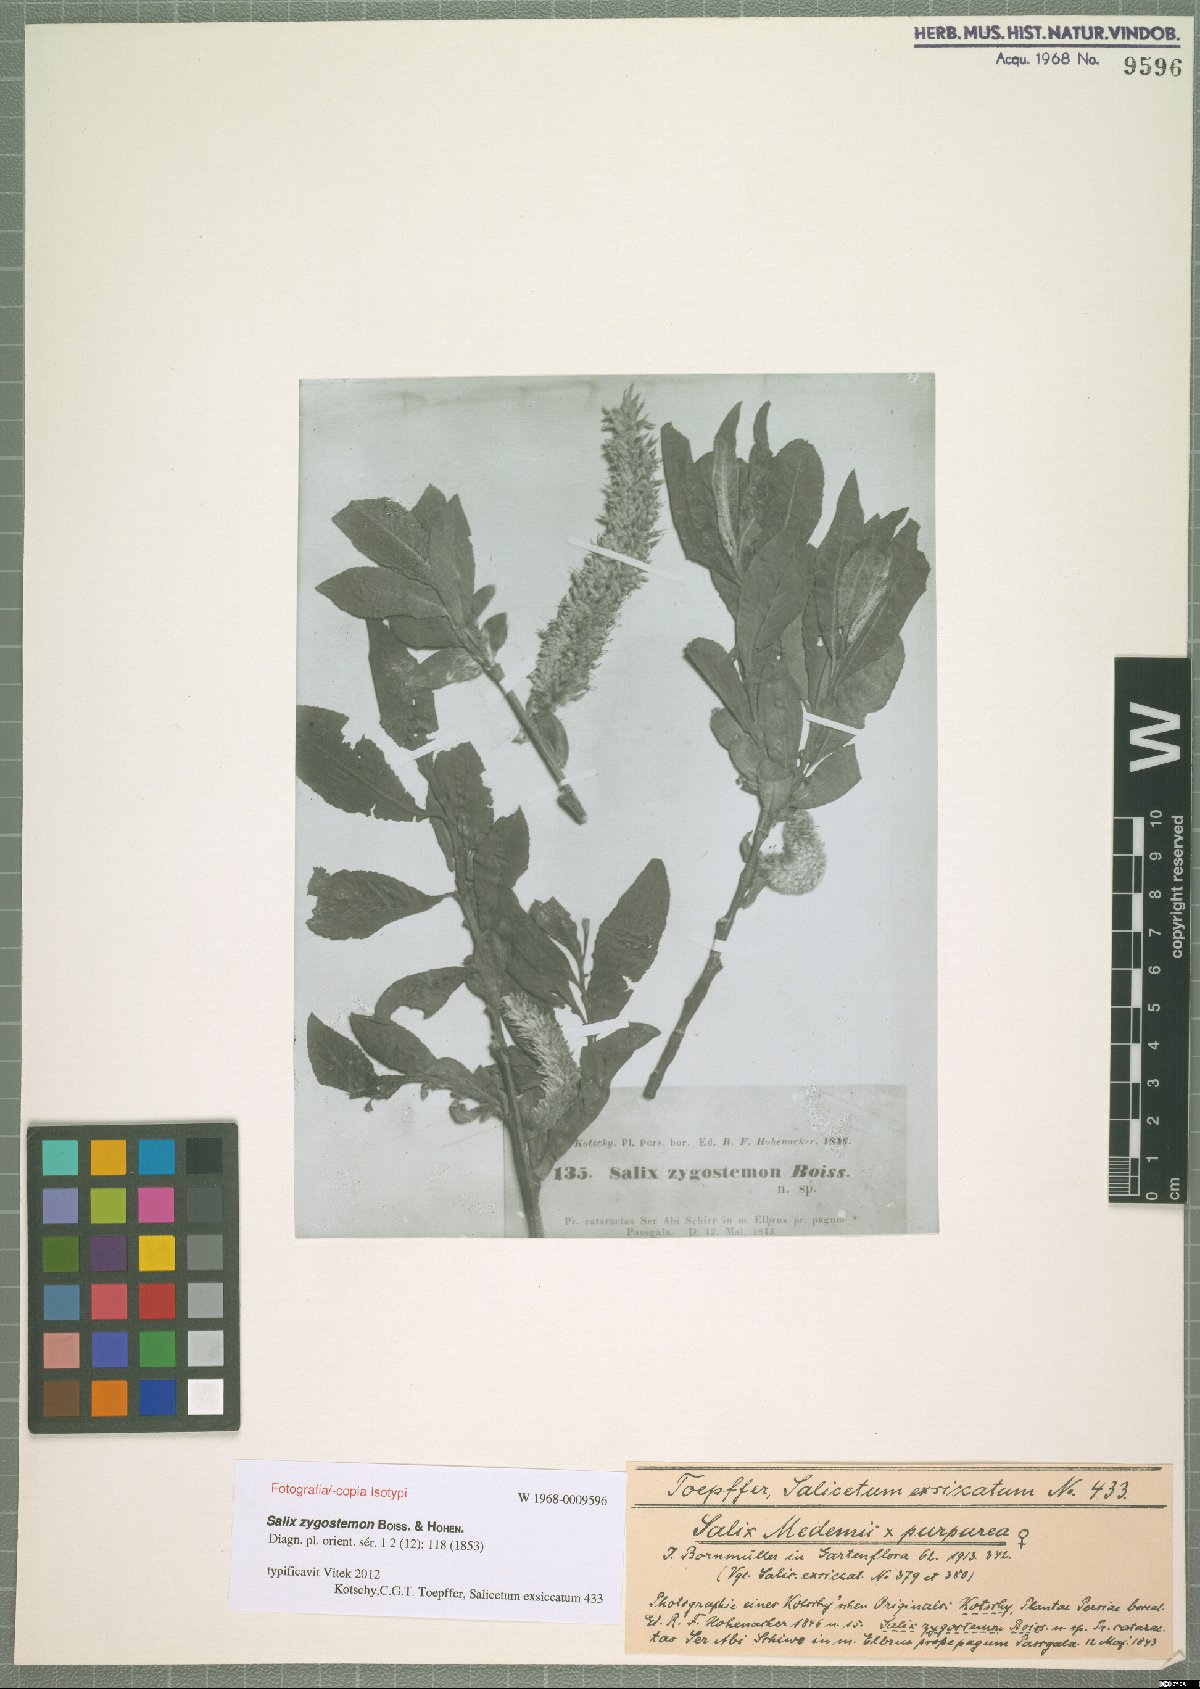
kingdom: Plantae
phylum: Tracheophyta
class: Magnoliopsida
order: Malpighiales
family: Salicaceae
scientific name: Salicaceae
